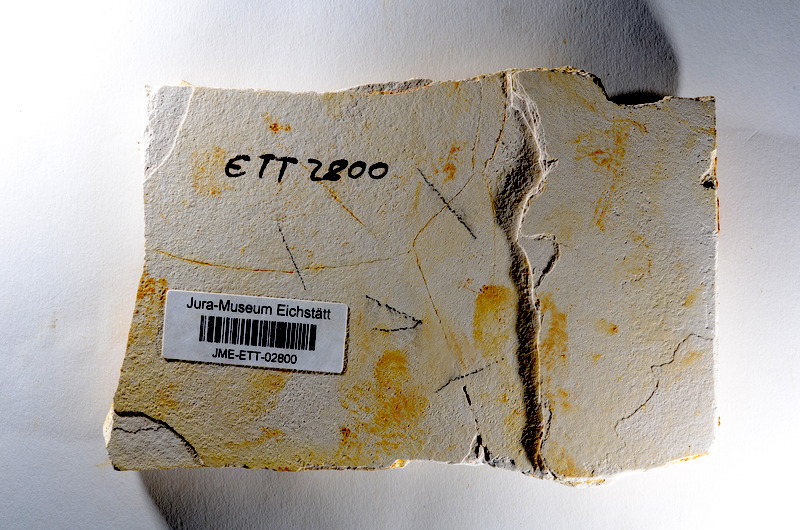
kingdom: Animalia
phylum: Chordata
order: Salmoniformes
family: Orthogonikleithridae
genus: Orthogonikleithrus
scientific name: Orthogonikleithrus hoelli
